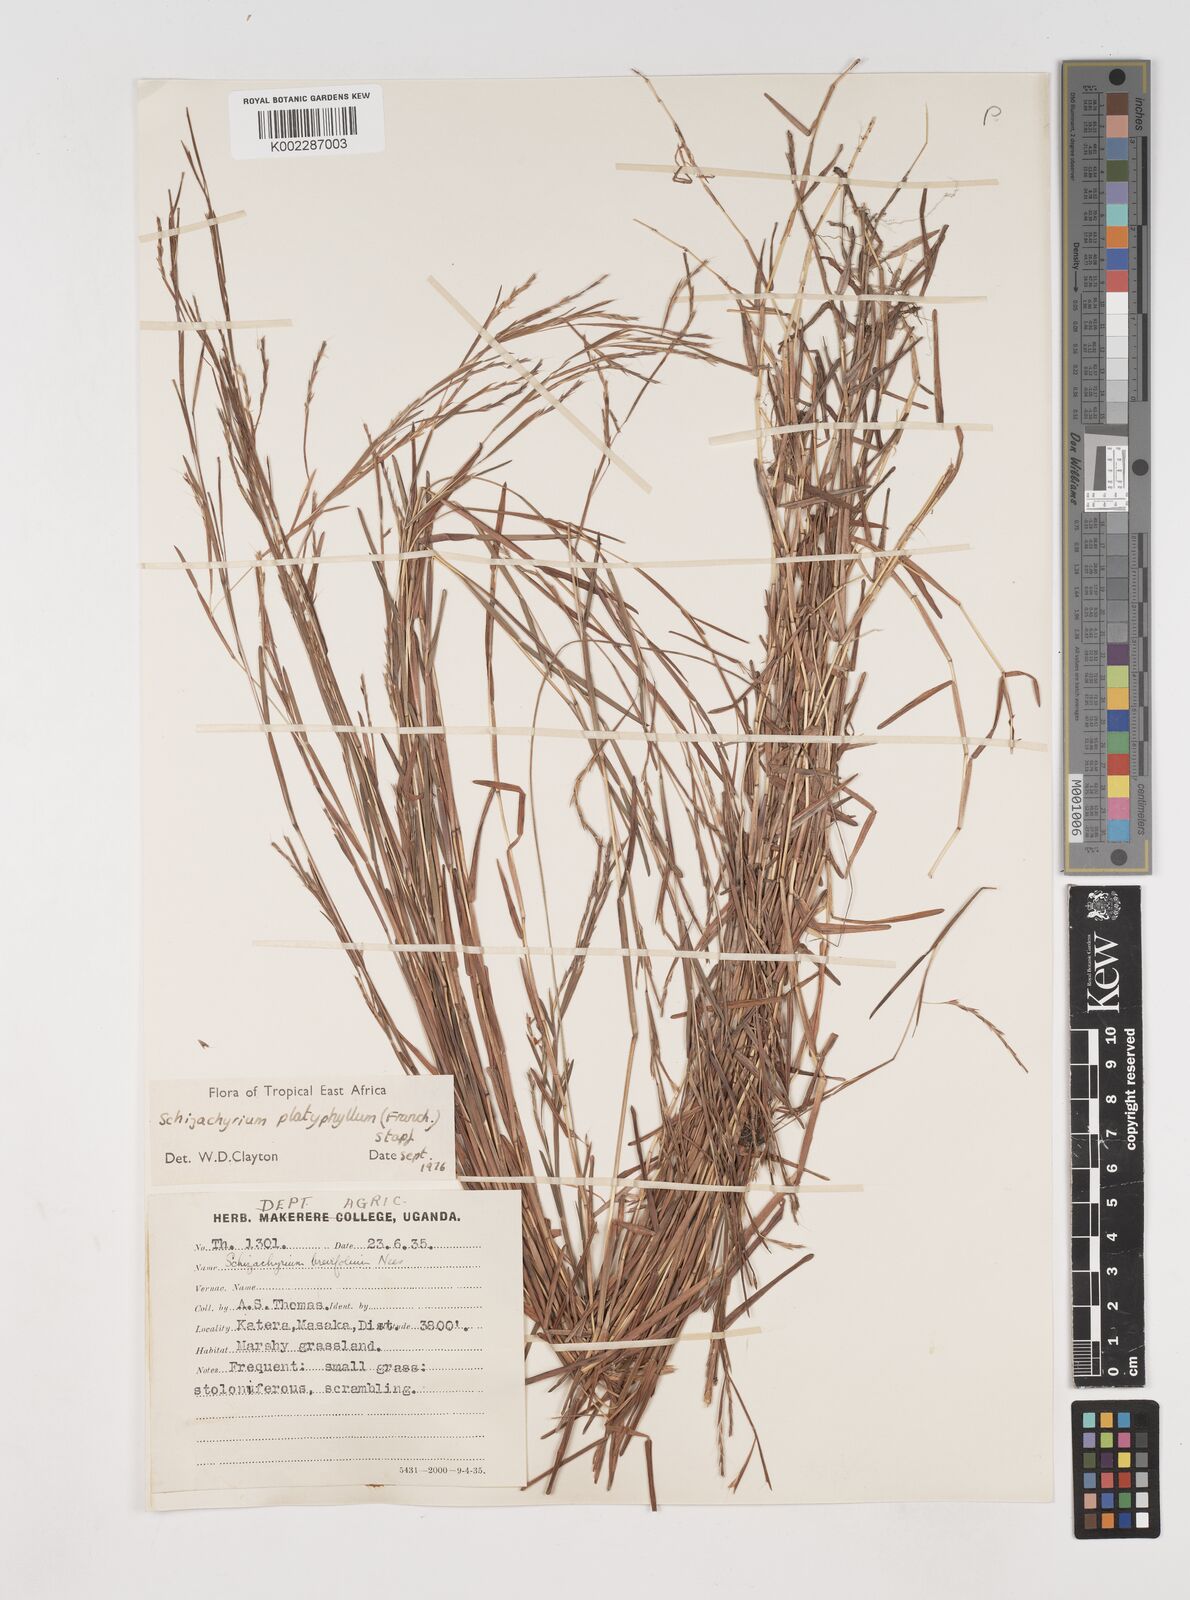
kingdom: Plantae
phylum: Tracheophyta
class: Liliopsida
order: Poales
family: Poaceae
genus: Schizachyrium
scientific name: Schizachyrium platyphyllum
